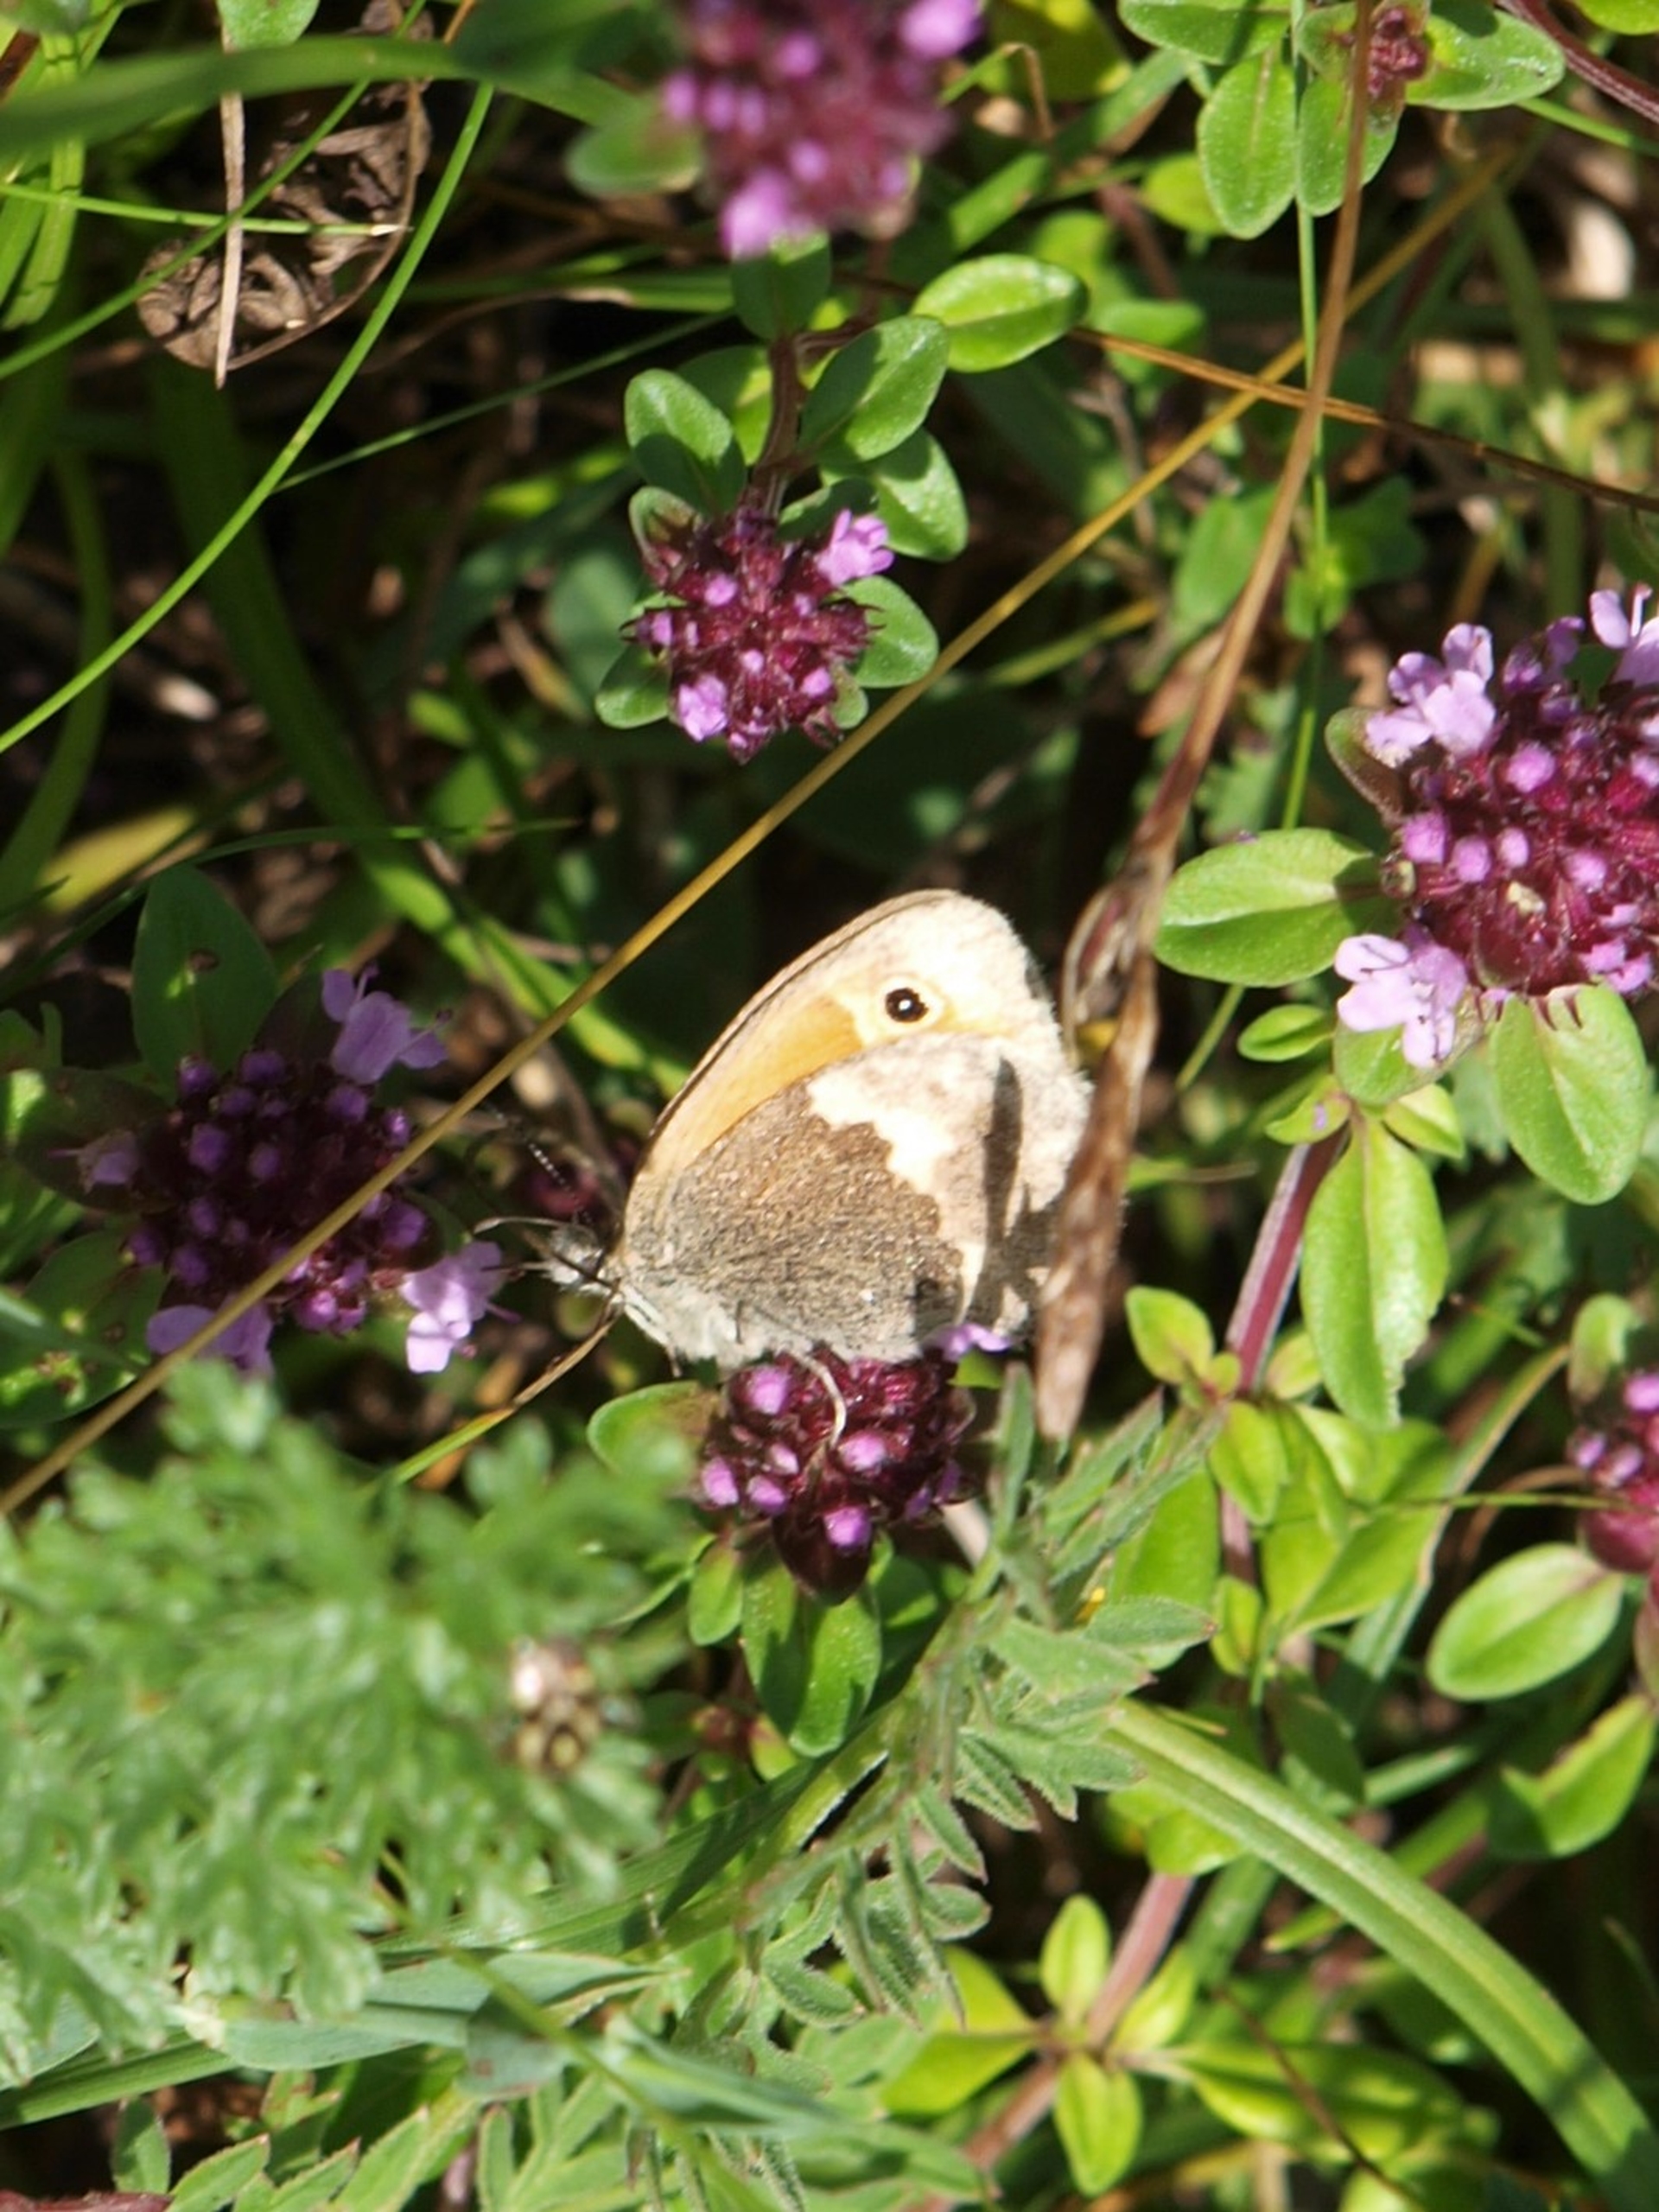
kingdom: Animalia
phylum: Arthropoda
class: Insecta
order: Lepidoptera
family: Nymphalidae
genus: Coenonympha
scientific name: Coenonympha pamphilus
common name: Okkergul randøje
